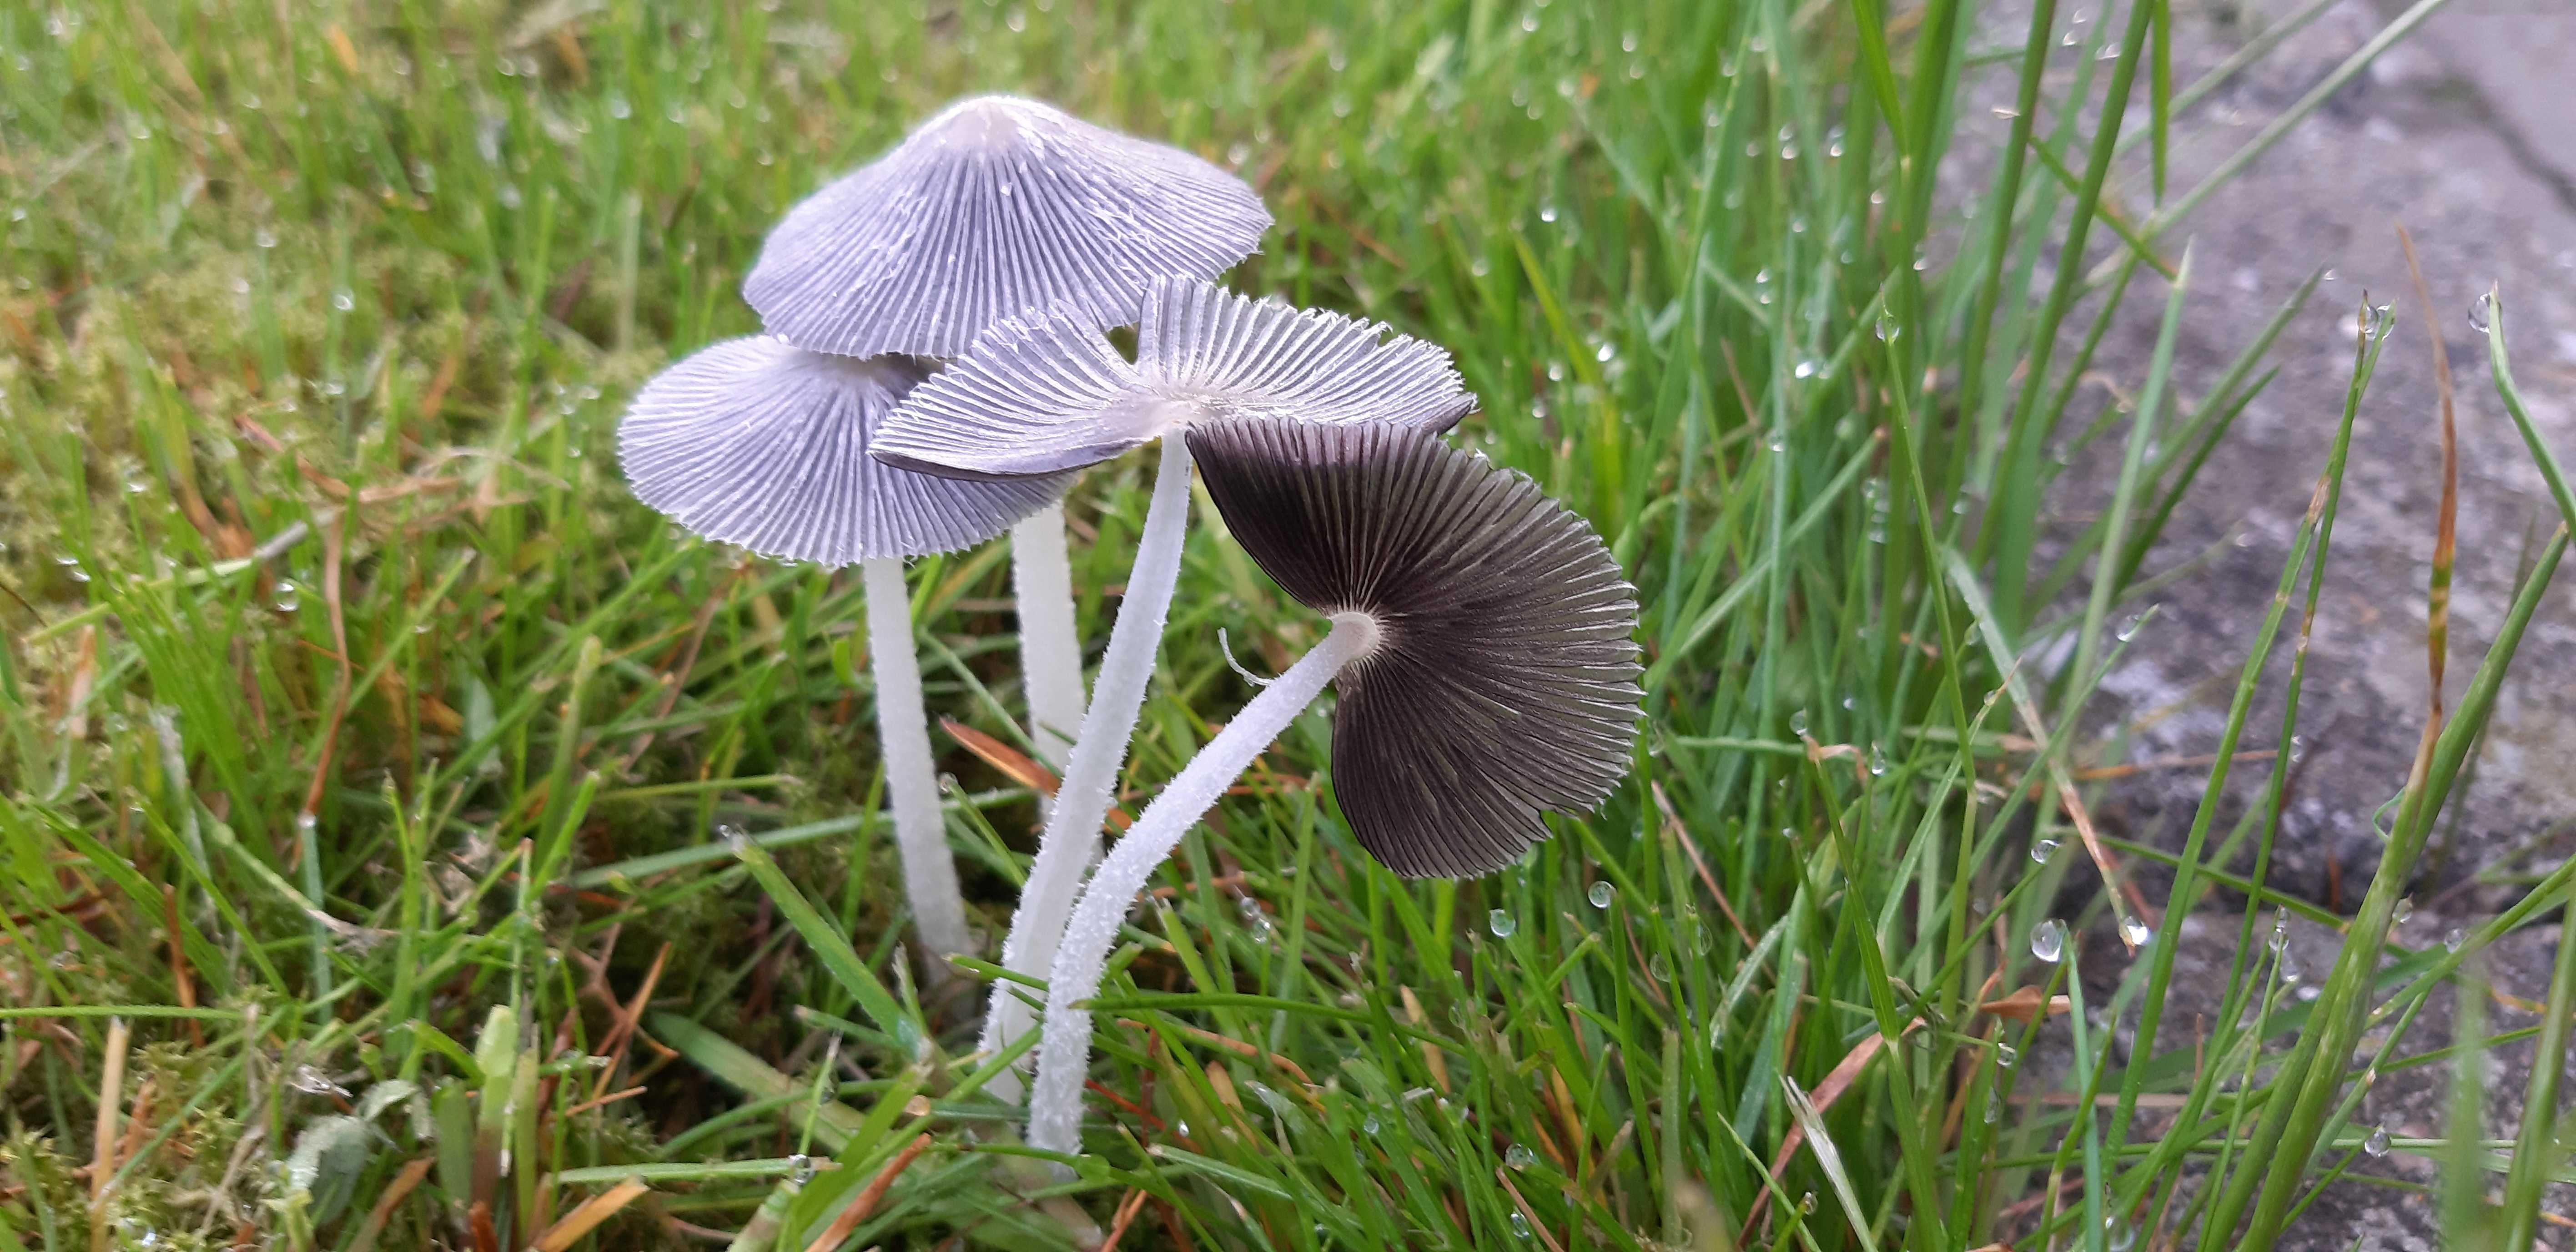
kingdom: Fungi
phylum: Basidiomycota
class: Agaricomycetes
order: Agaricales
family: Psathyrellaceae
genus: Coprinopsis
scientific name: Coprinopsis lagopus
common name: dunstokket blækhat
